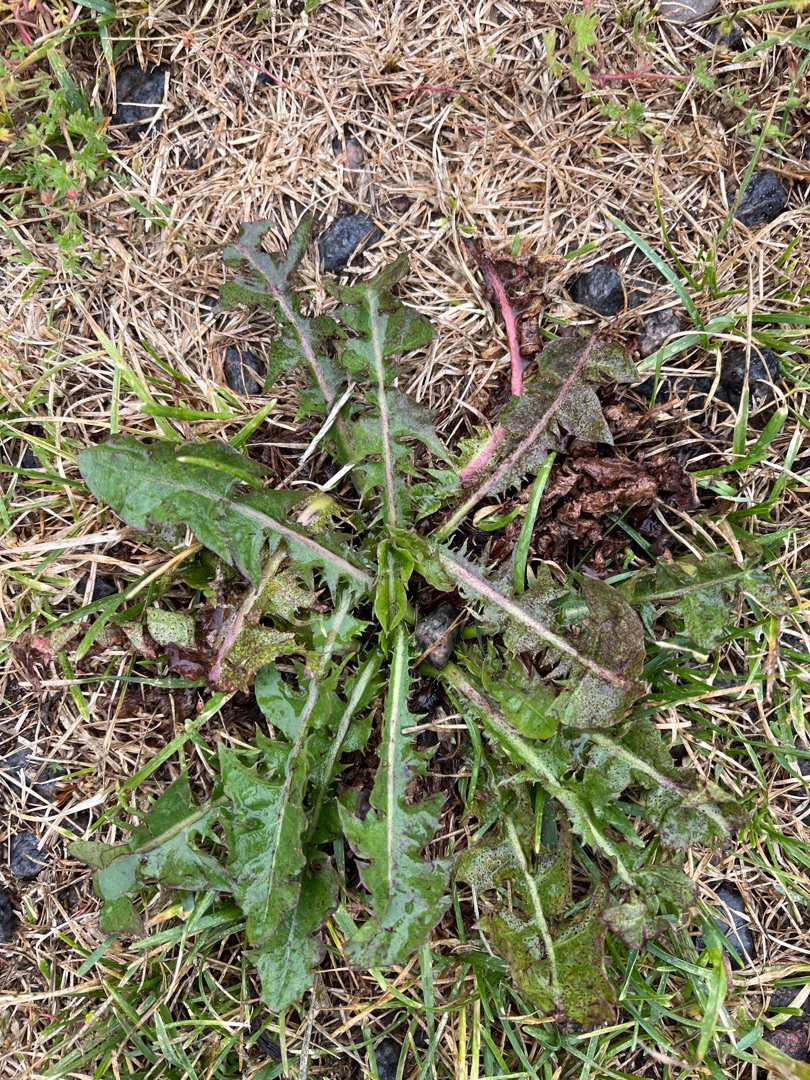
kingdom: Plantae
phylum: Tracheophyta
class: Magnoliopsida
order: Asterales
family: Asteraceae
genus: Taraxacum
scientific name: Taraxacum
